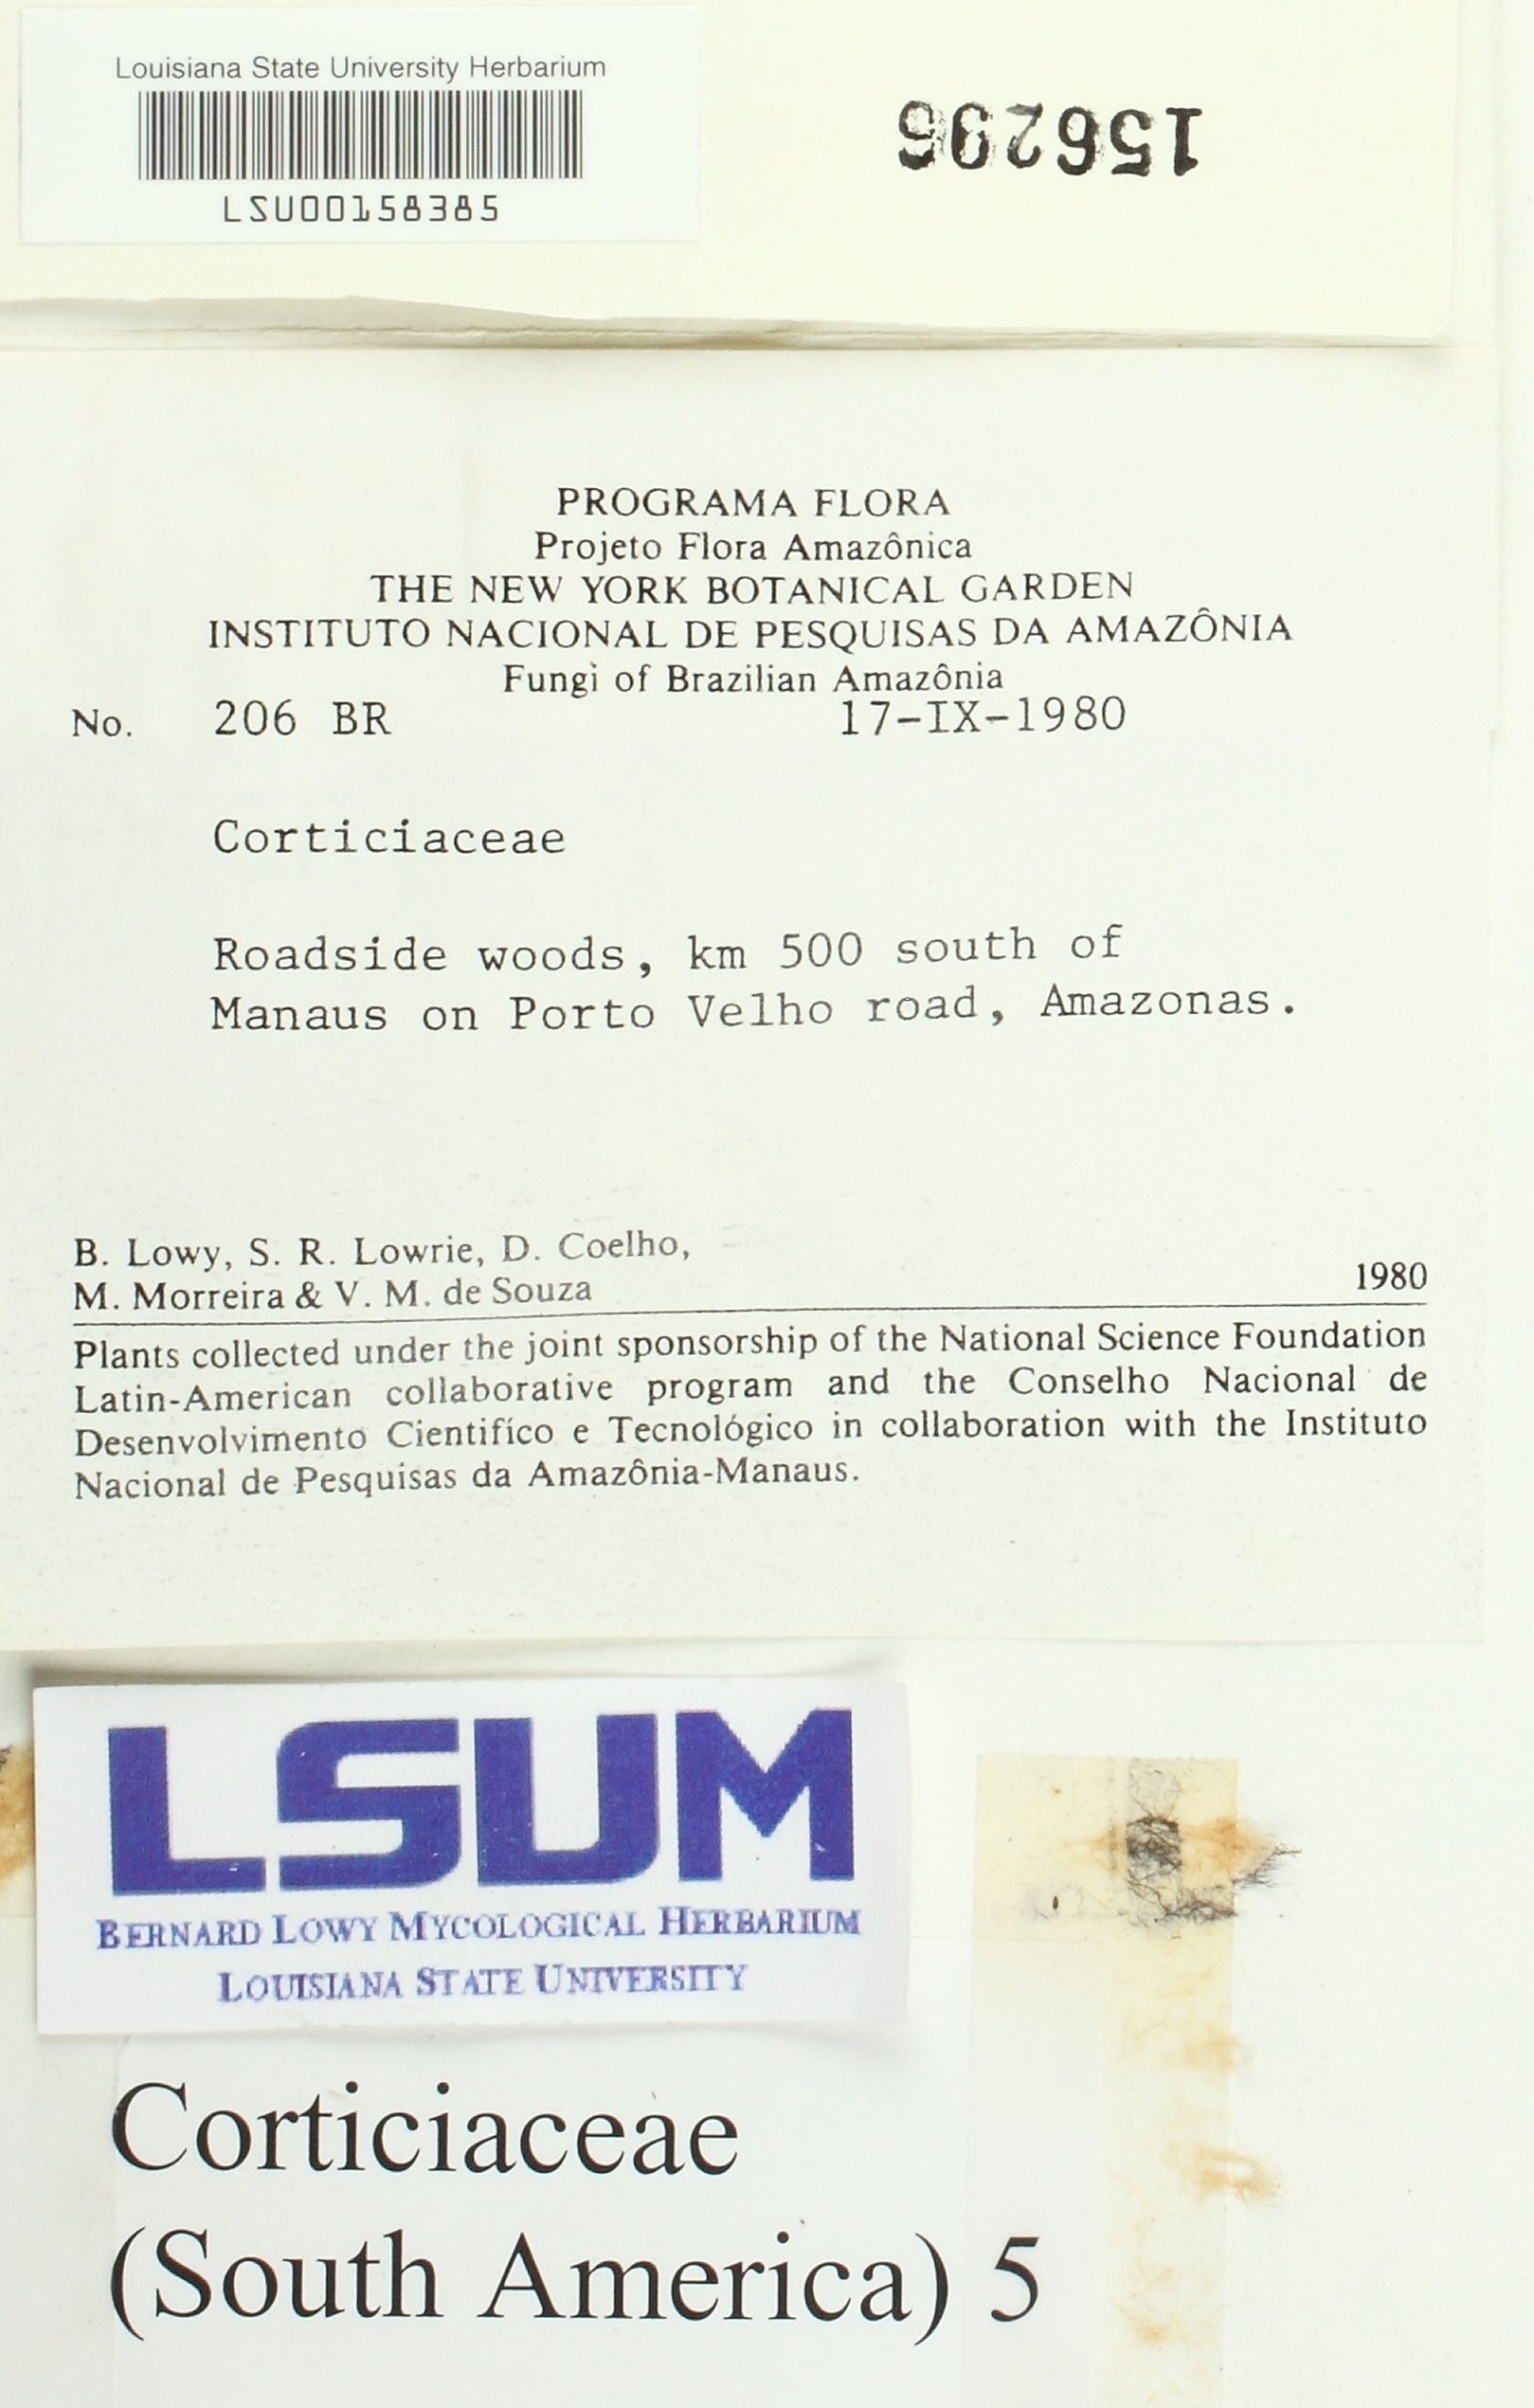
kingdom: Fungi
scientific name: Fungi
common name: Fungi
